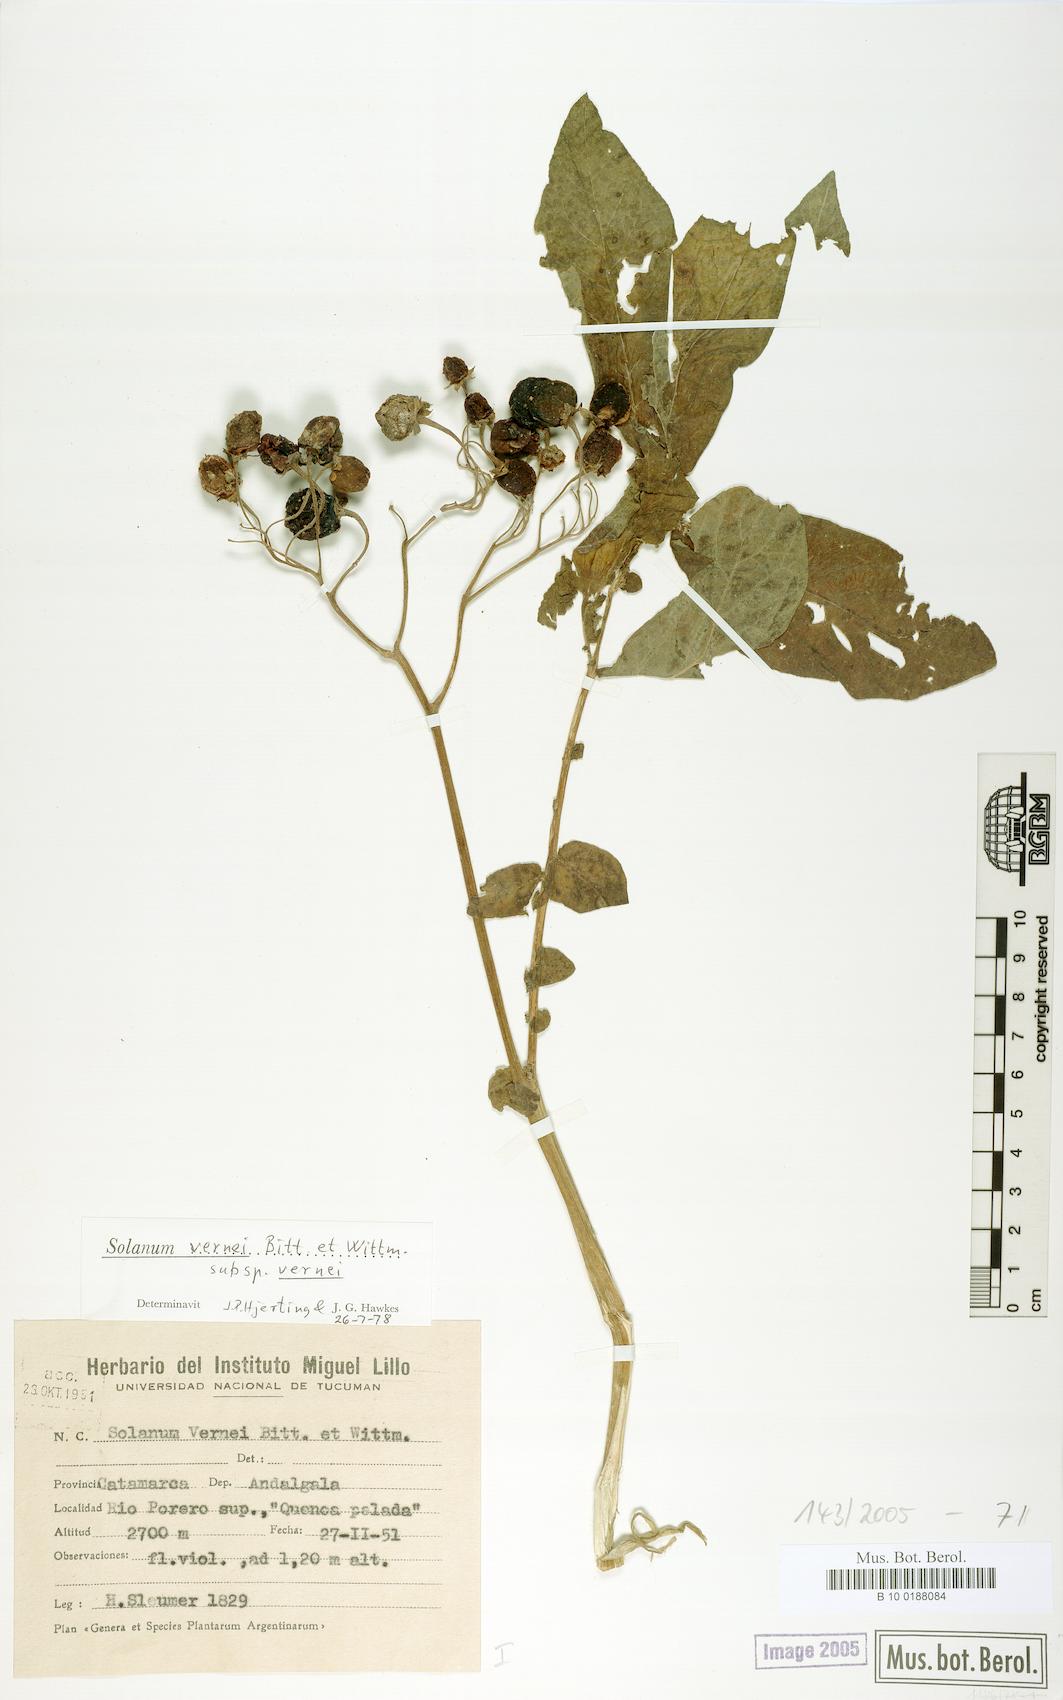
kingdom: Plantae
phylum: Tracheophyta
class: Magnoliopsida
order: Solanales
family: Solanaceae
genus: Solanum
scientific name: Solanum vernei
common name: Purple potato
